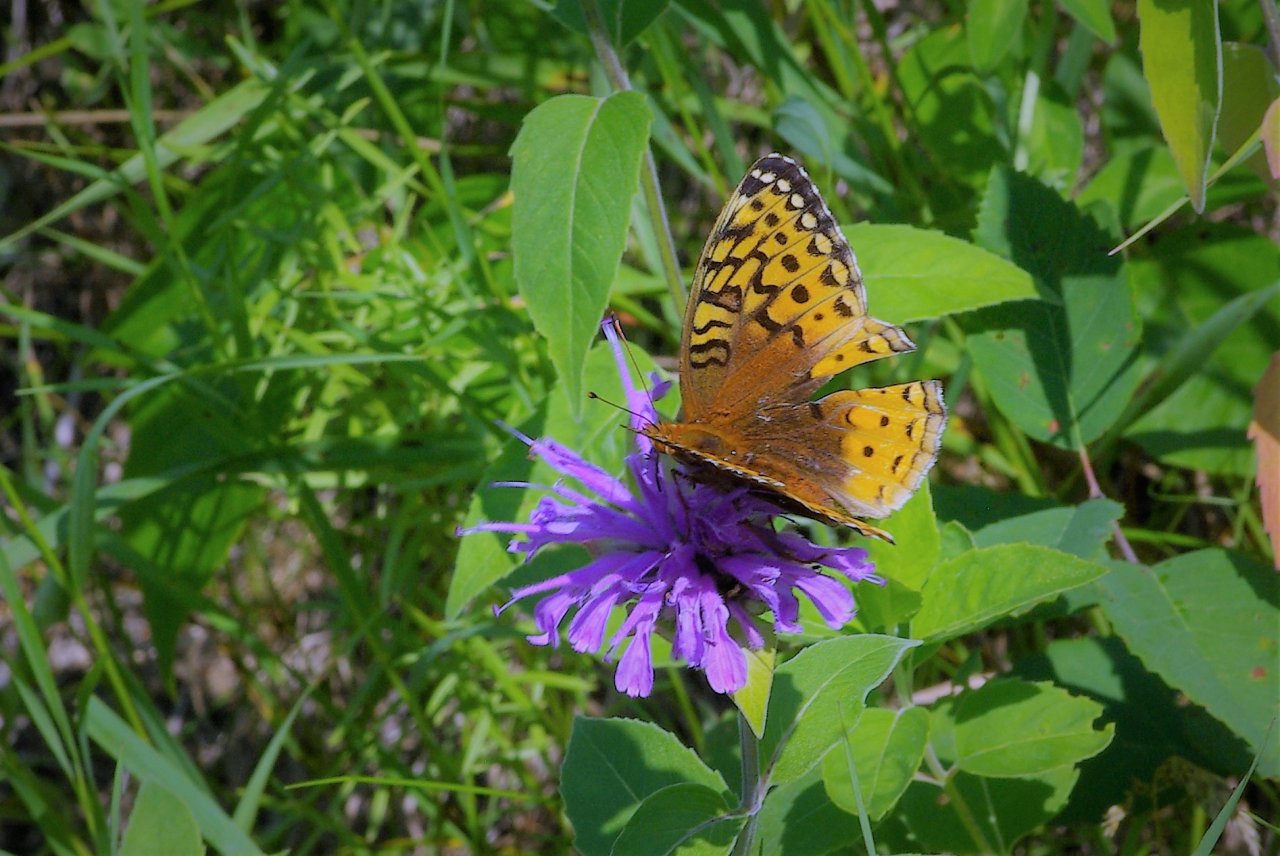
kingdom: Animalia
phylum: Arthropoda
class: Insecta
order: Lepidoptera
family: Nymphalidae
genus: Speyeria
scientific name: Speyeria cybele
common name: Great Spangled Fritillary
